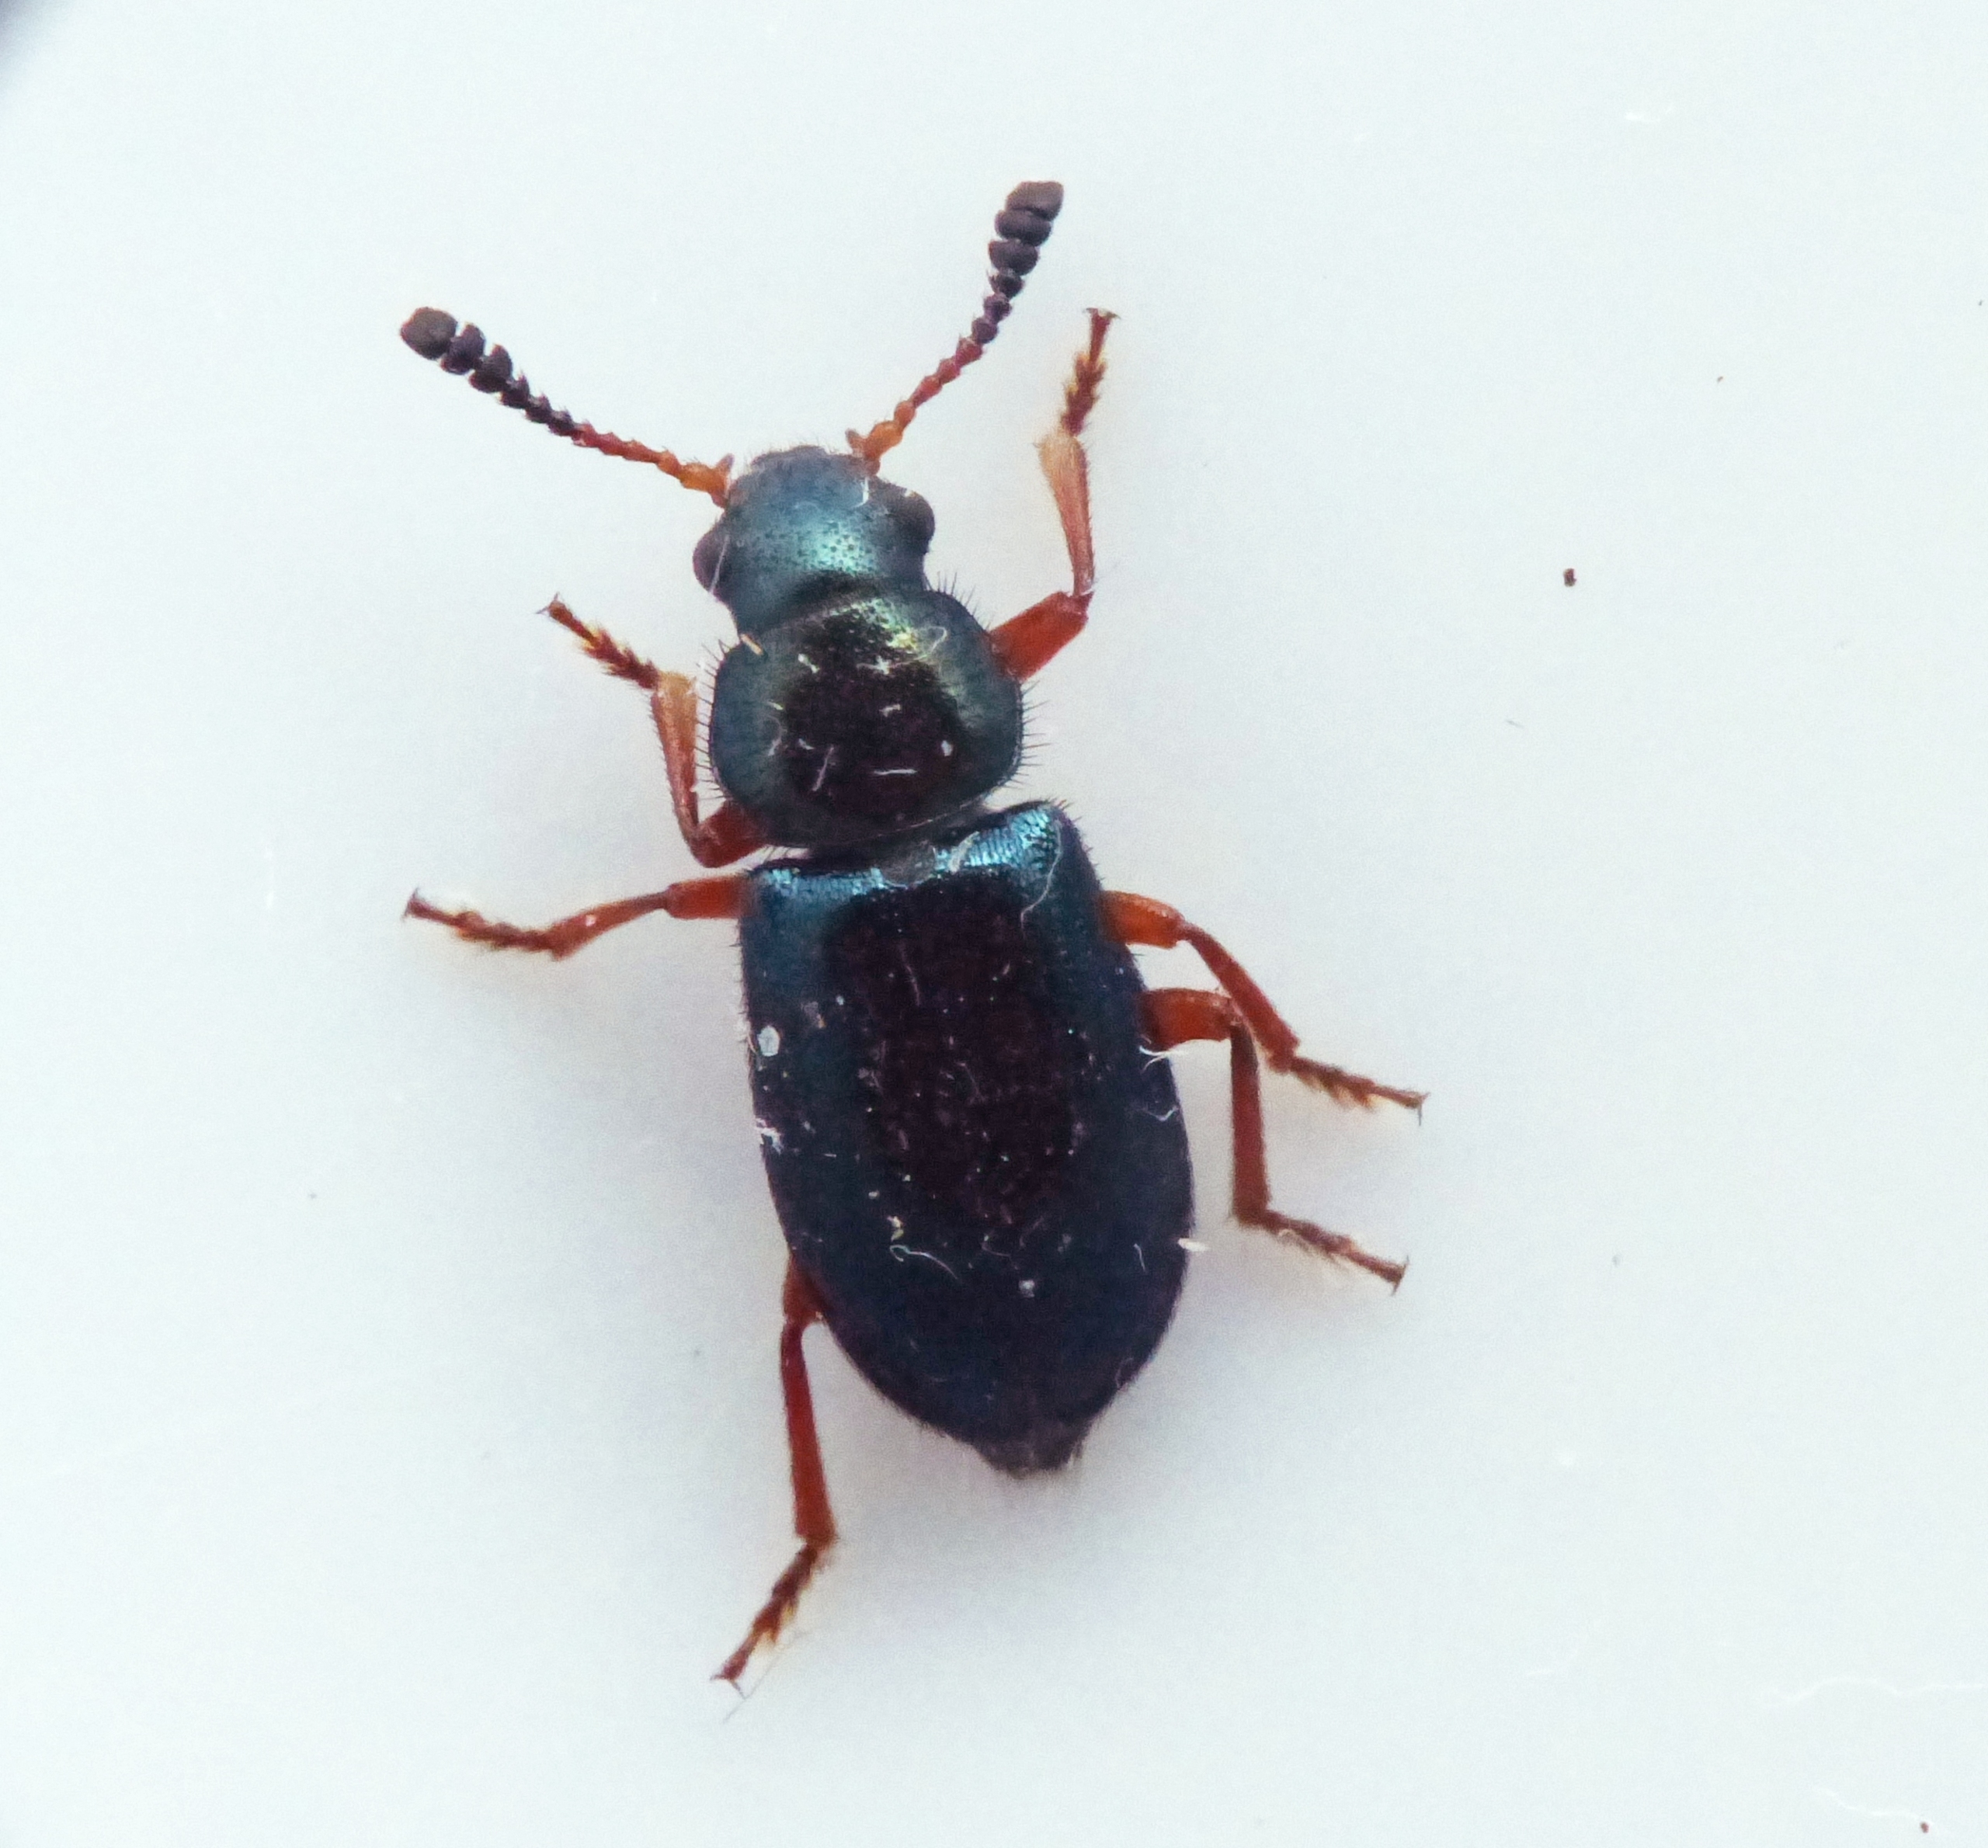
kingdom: Animalia
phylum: Arthropoda
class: Insecta
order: Coleoptera
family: Cleridae
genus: Necrobia
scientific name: Necrobia rufipes
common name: Rødbenet koprabille
